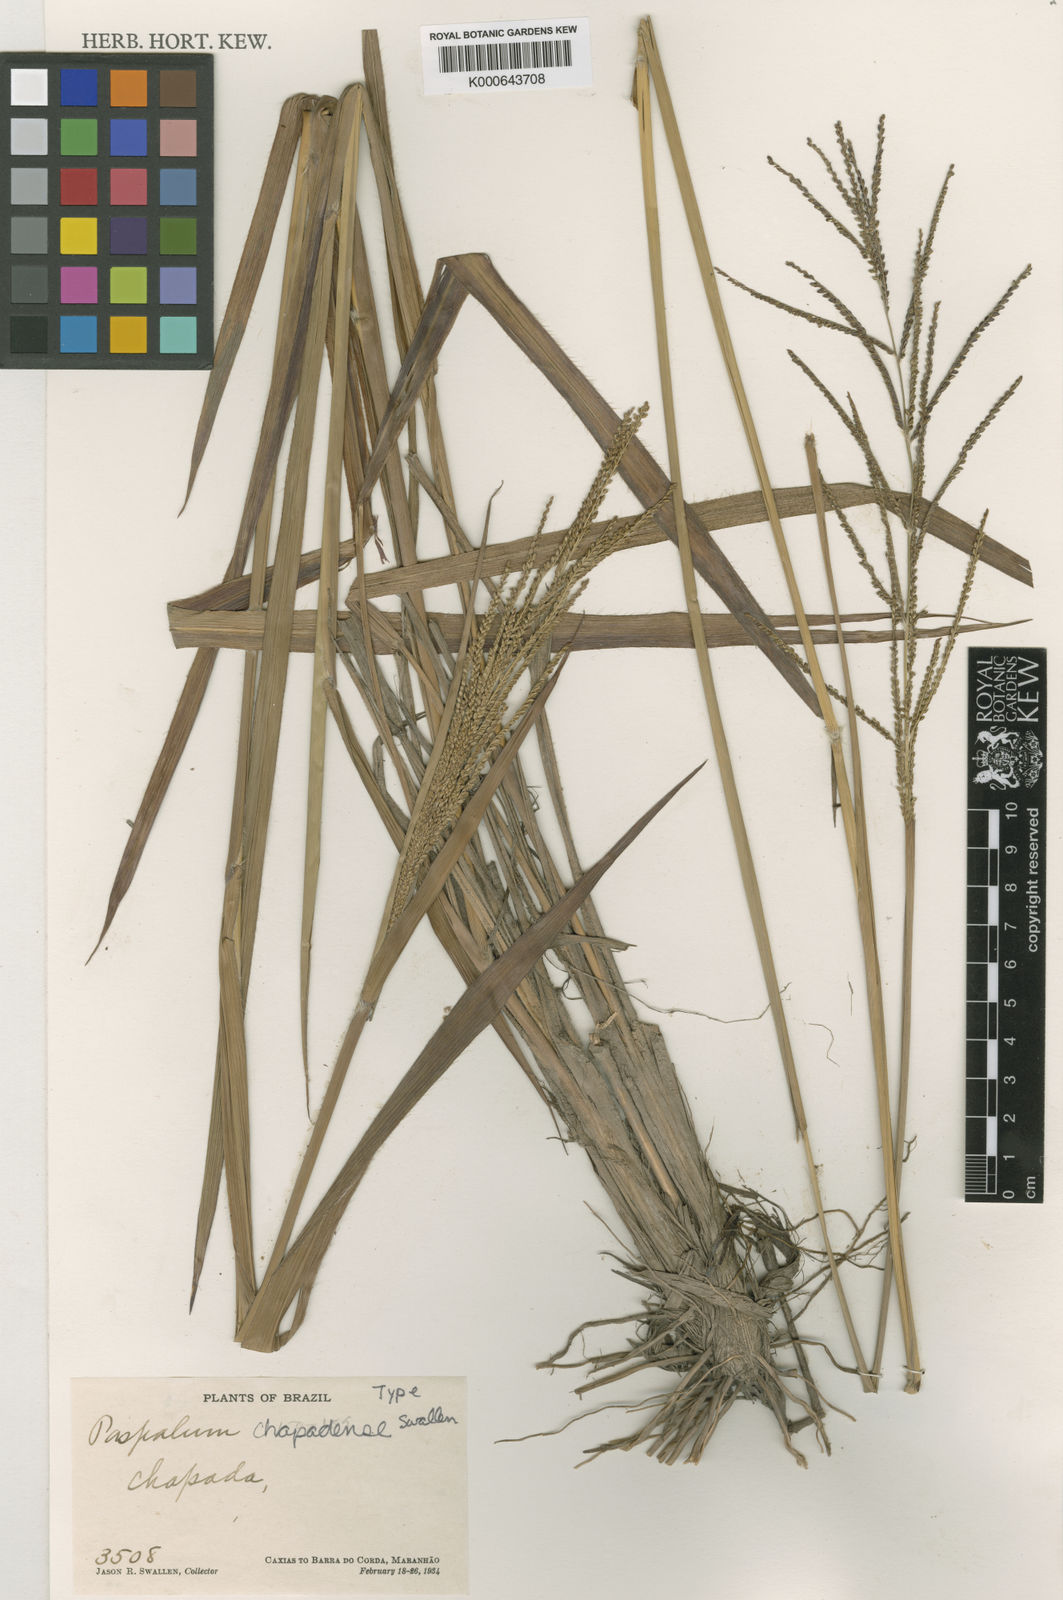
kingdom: Plantae
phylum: Tracheophyta
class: Liliopsida
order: Poales
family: Poaceae
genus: Paspalum
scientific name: Paspalum coryphaeum
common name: Emperor crowngrass
